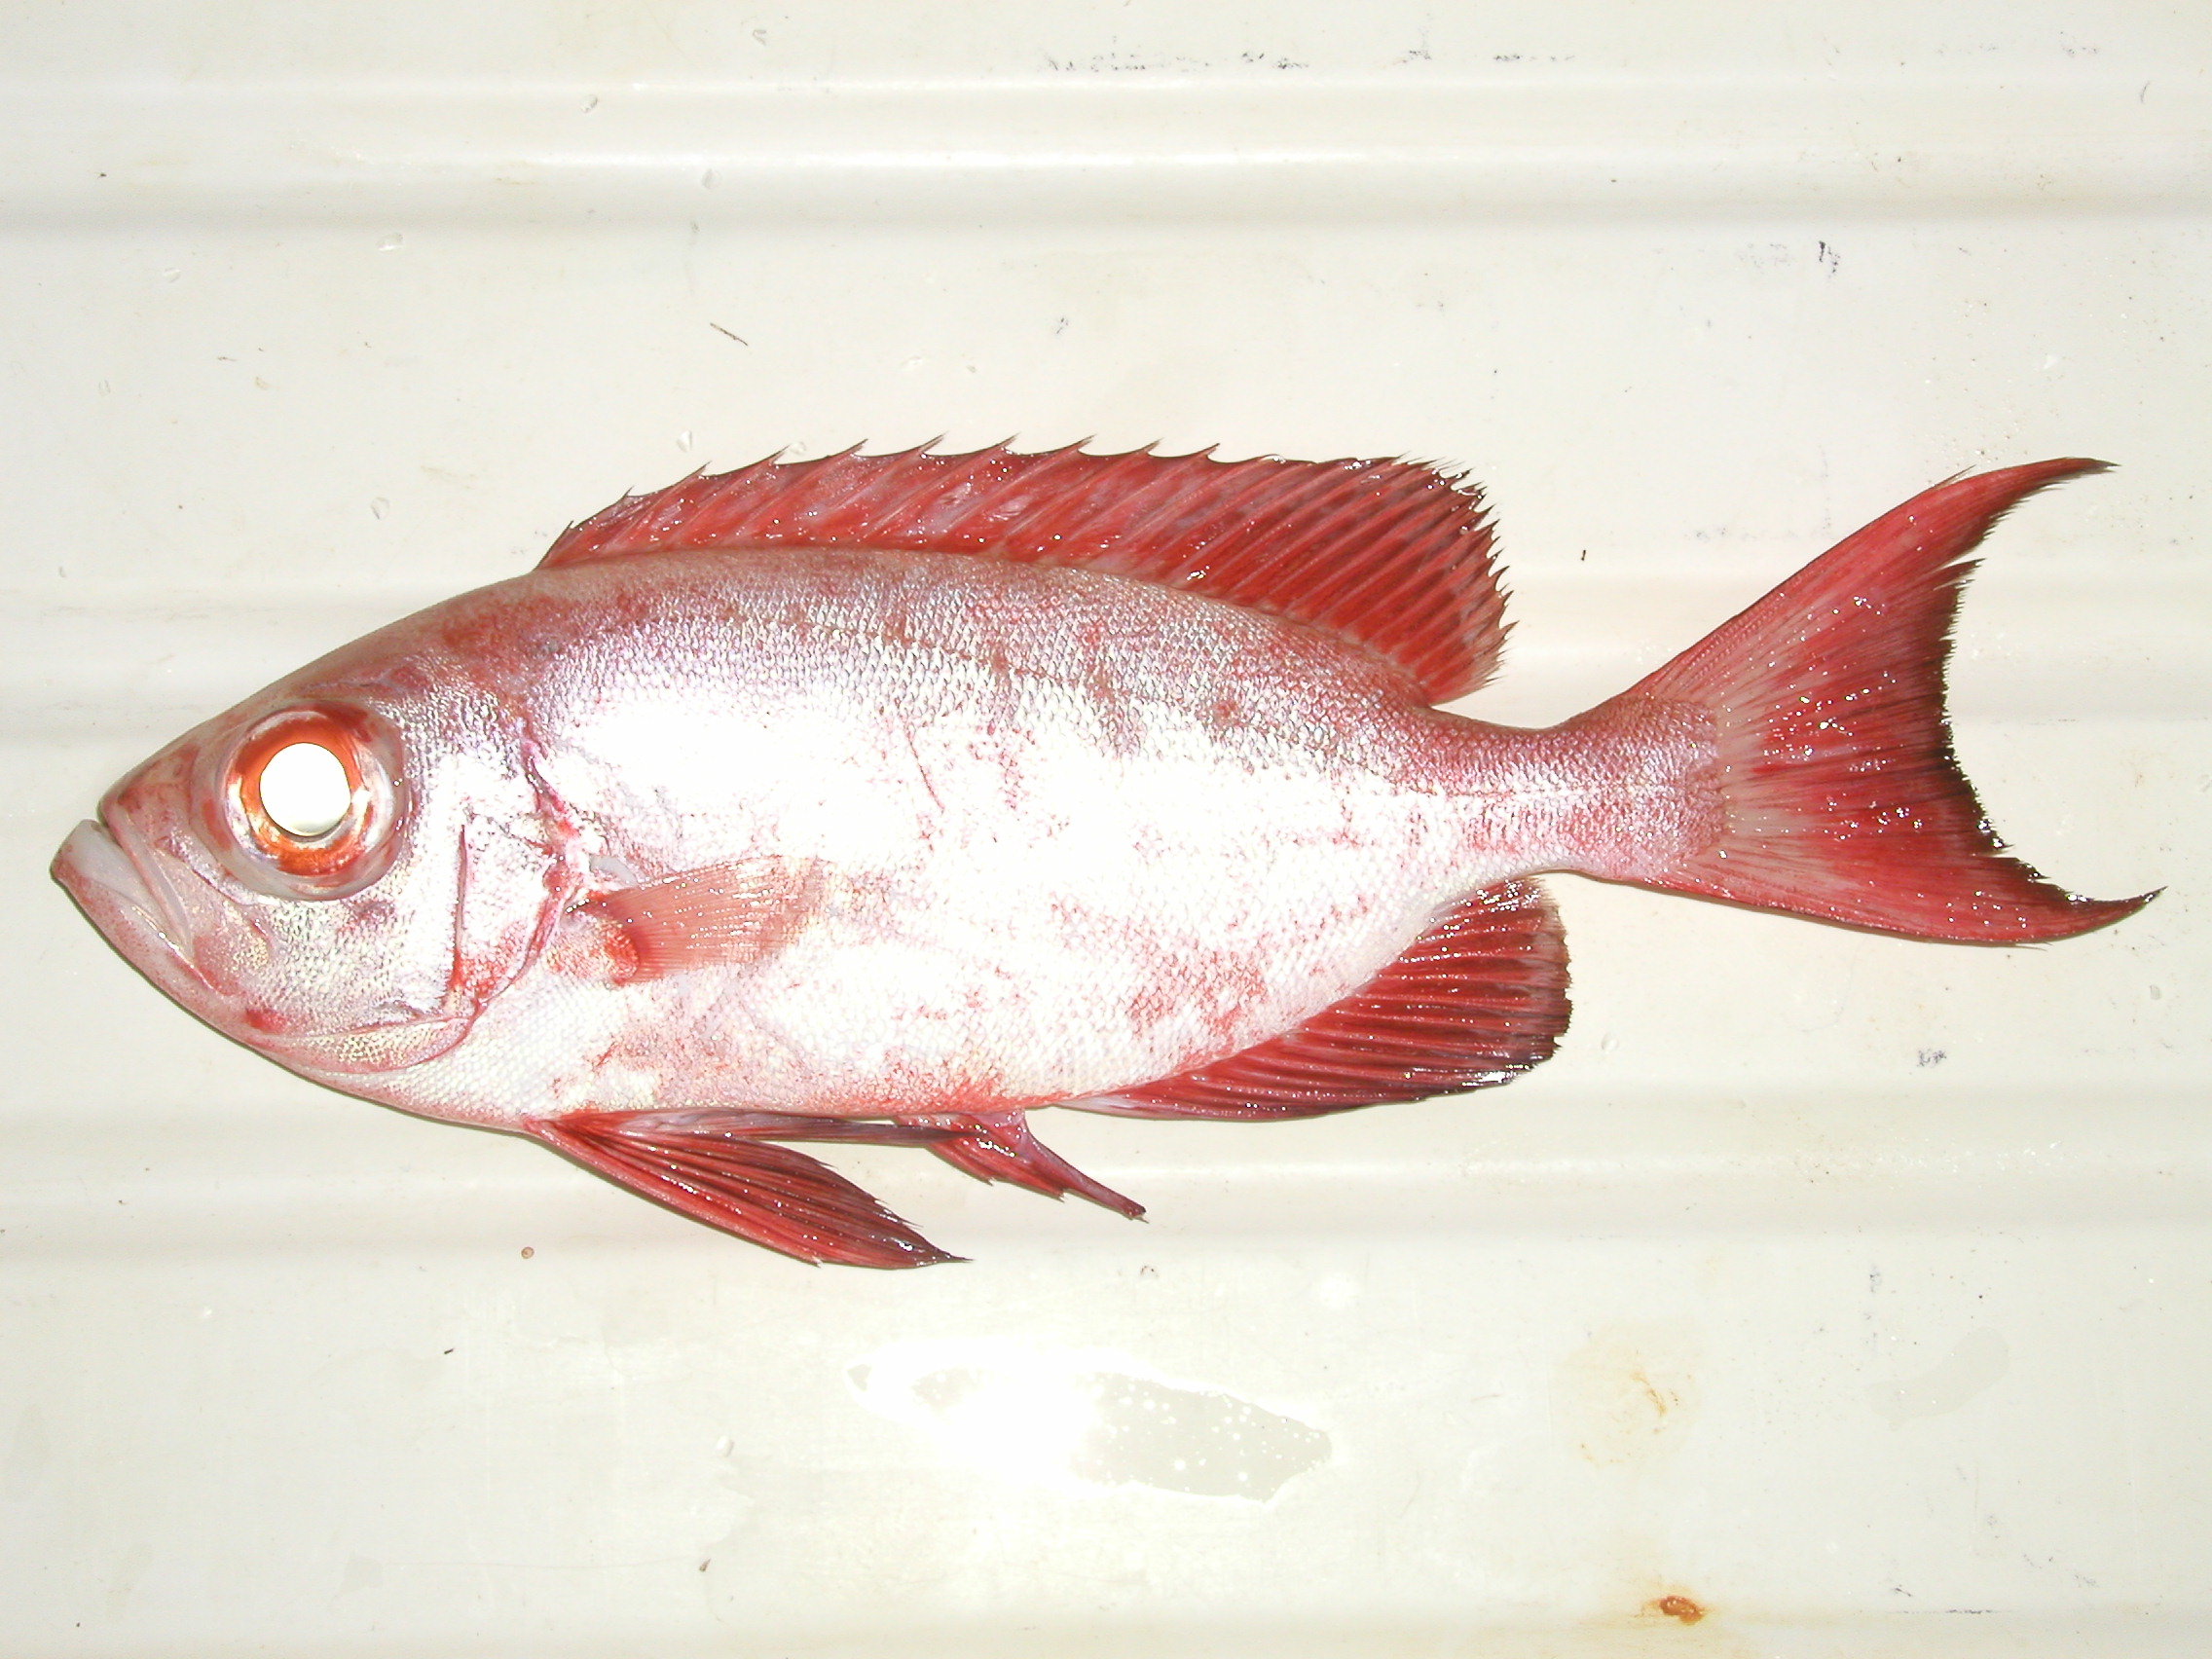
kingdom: Animalia
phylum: Chordata
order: Perciformes
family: Priacanthidae
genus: Priacanthus
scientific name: Priacanthus hamrur
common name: Moontail bullseye
